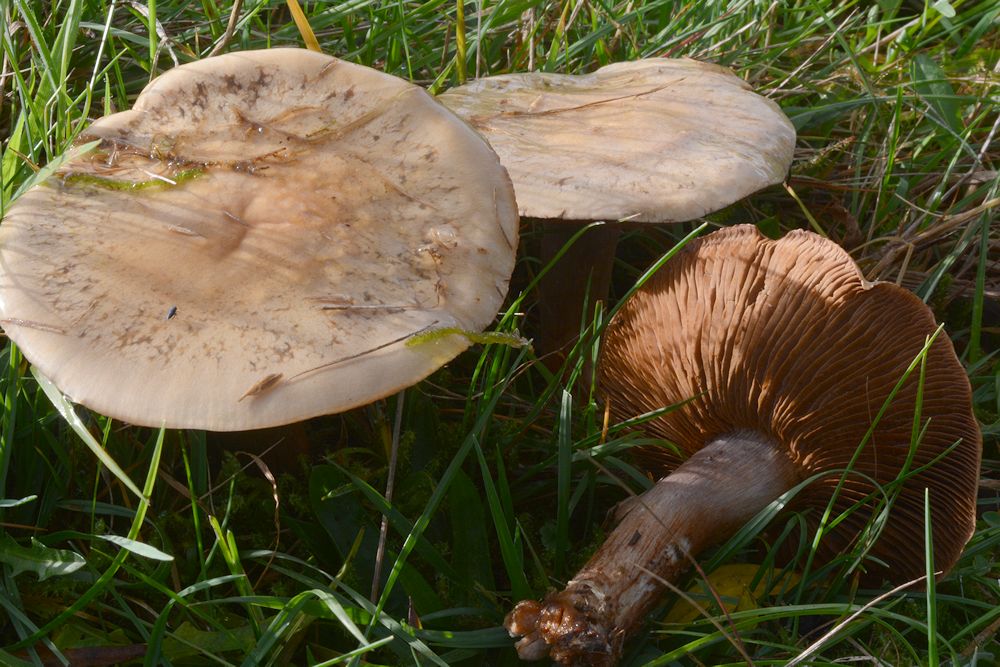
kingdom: Fungi
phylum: Basidiomycota
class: Agaricomycetes
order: Agaricales
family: Cortinariaceae
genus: Thaxterogaster
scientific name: Thaxterogaster porphyropus
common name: purpurstokket slørhat
